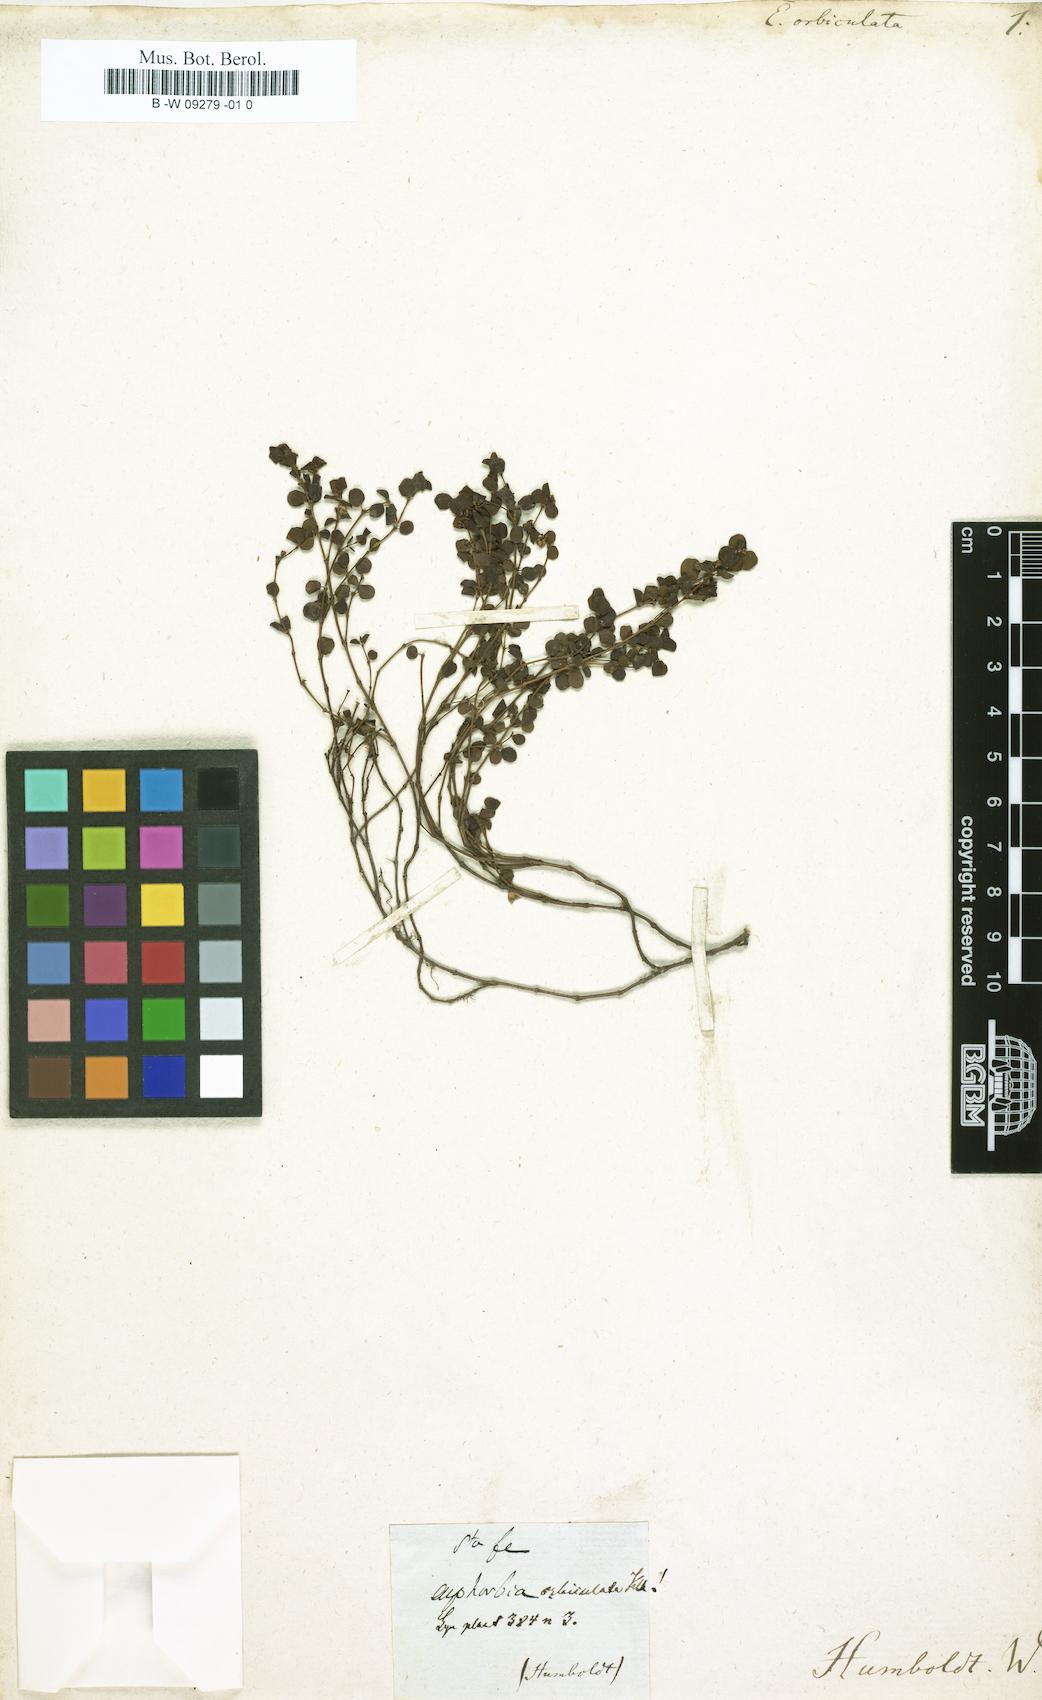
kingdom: Plantae
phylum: Tracheophyta
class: Magnoliopsida
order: Malpighiales
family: Euphorbiaceae
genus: Euphorbia
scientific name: Euphorbia orbiculata
